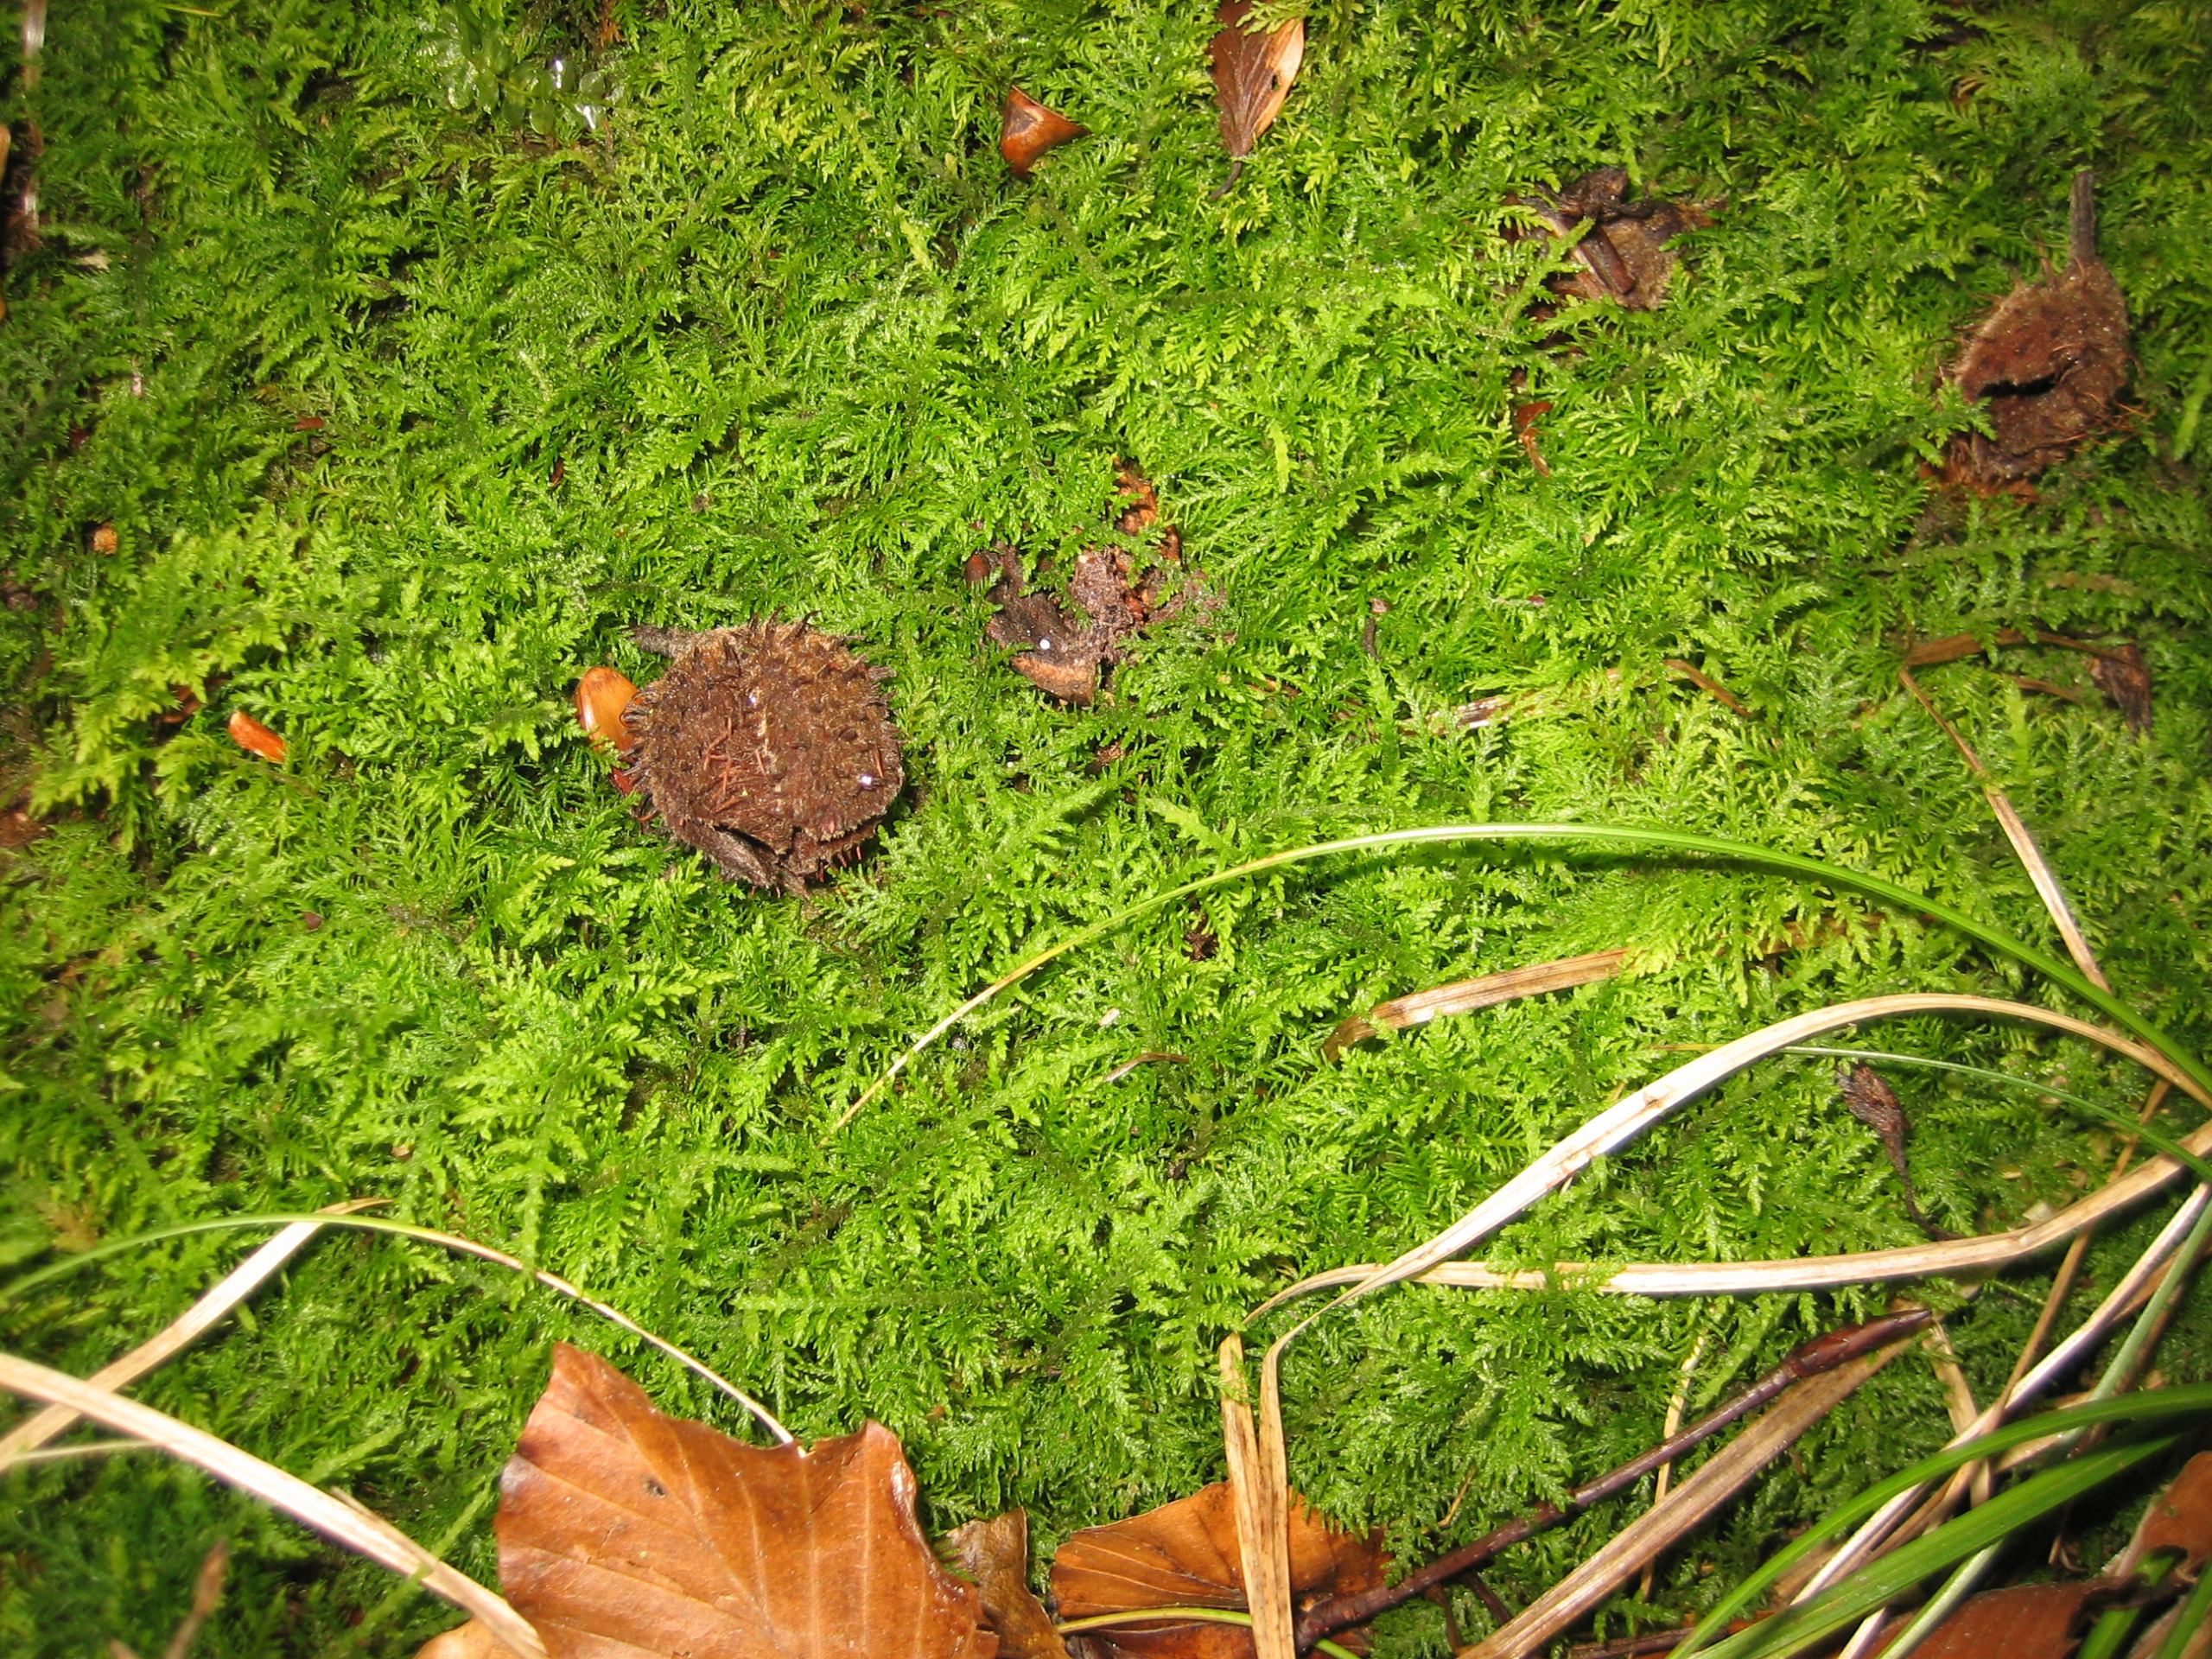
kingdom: Plantae
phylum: Bryophyta
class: Bryopsida
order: Hypnales
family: Thuidiaceae
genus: Thuidium
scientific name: Thuidium tamariscinum
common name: Pryd-bregnemos
